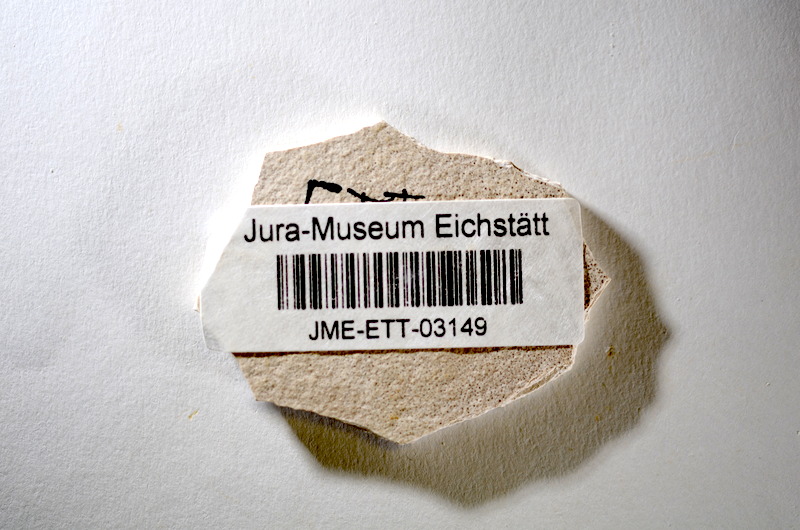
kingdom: Animalia
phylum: Chordata
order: Salmoniformes
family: Orthogonikleithridae
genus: Orthogonikleithrus
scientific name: Orthogonikleithrus hoelli
